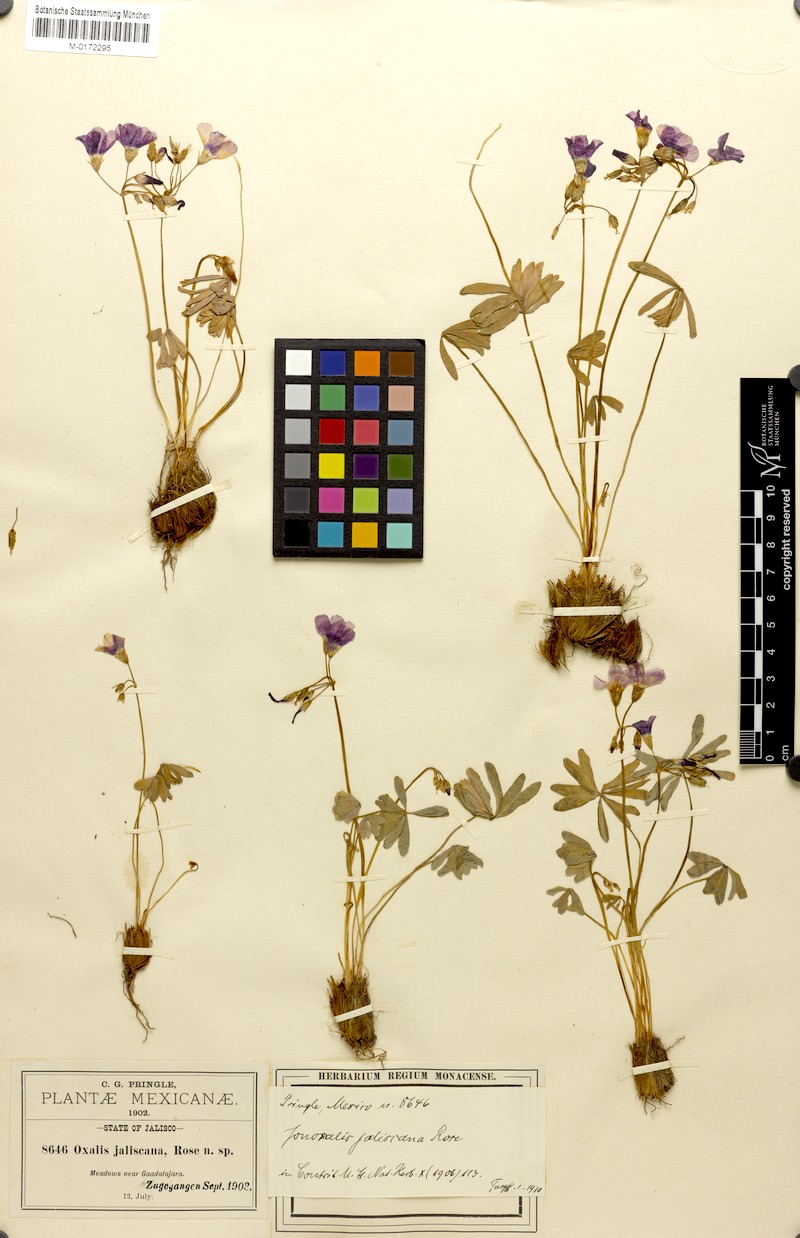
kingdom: Plantae
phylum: Tracheophyta
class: Magnoliopsida
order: Oxalidales
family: Oxalidaceae
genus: Oxalis
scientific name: Oxalis decaphylla
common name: Ten-leaved pink-sorrel
